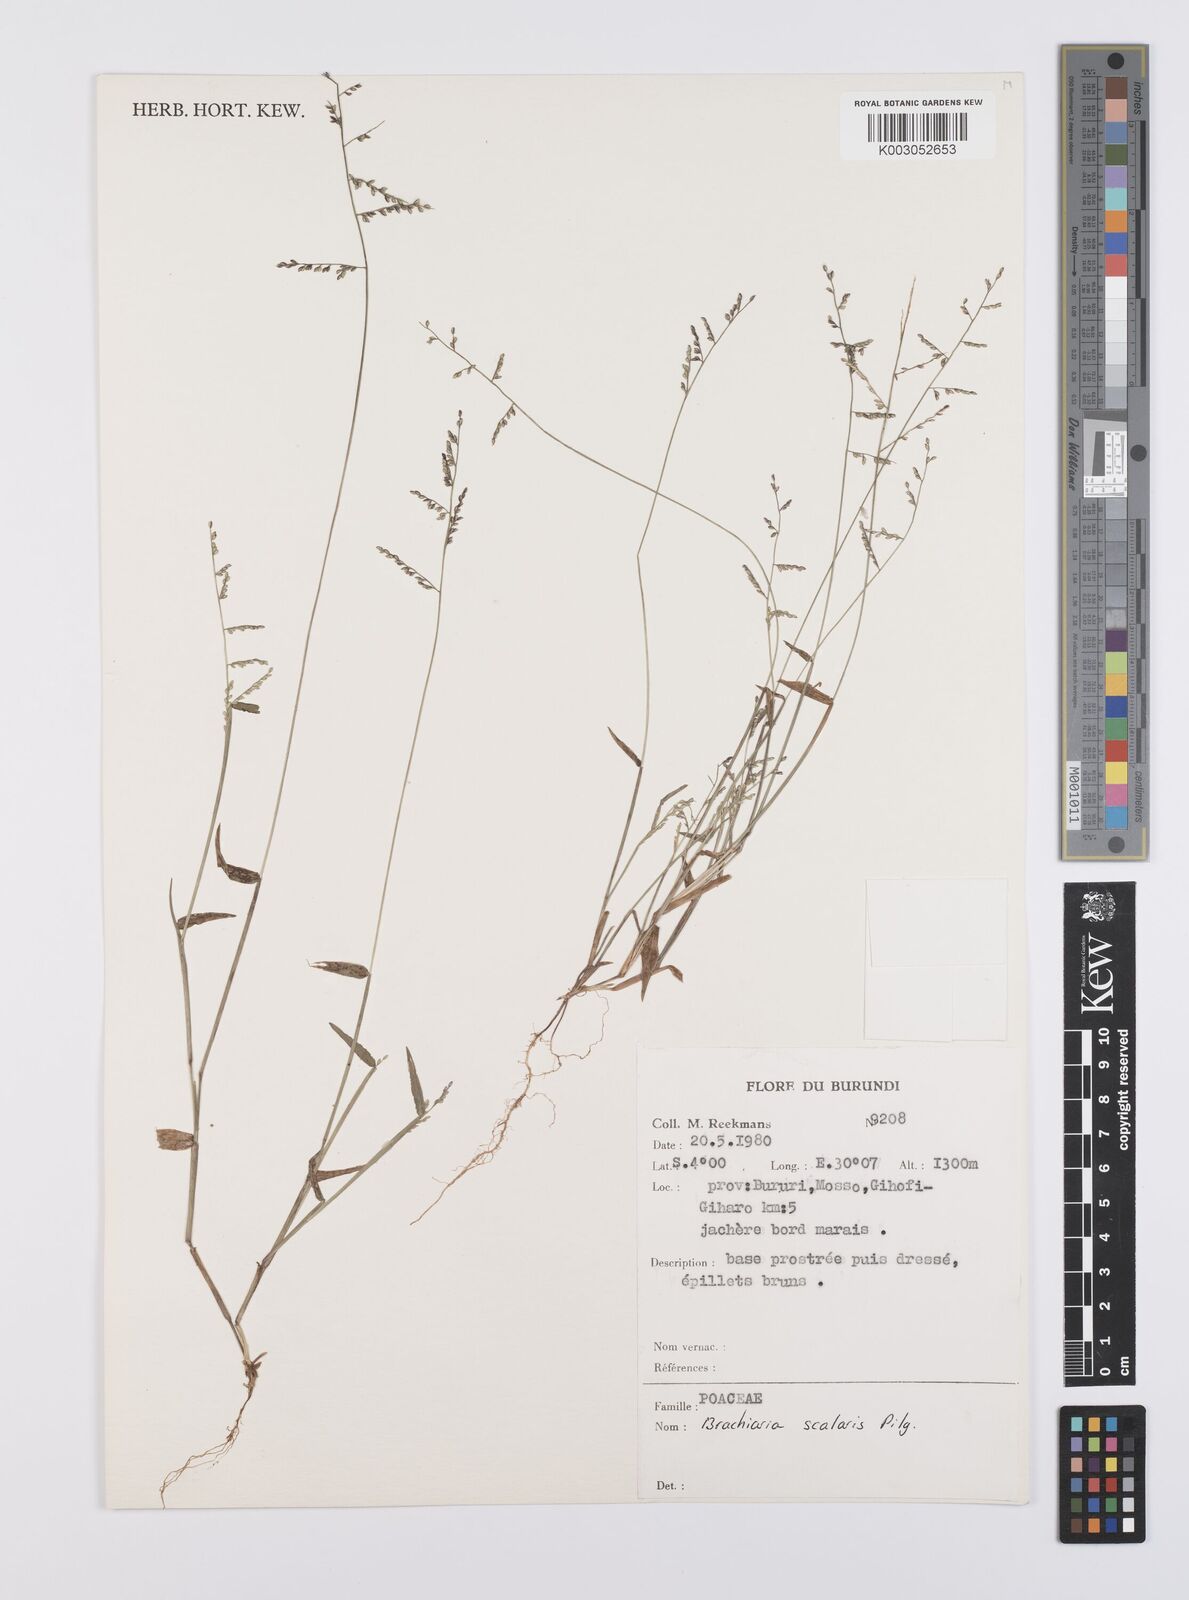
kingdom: Plantae
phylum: Tracheophyta
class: Liliopsida
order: Poales
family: Poaceae
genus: Urochloa
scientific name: Urochloa comata
